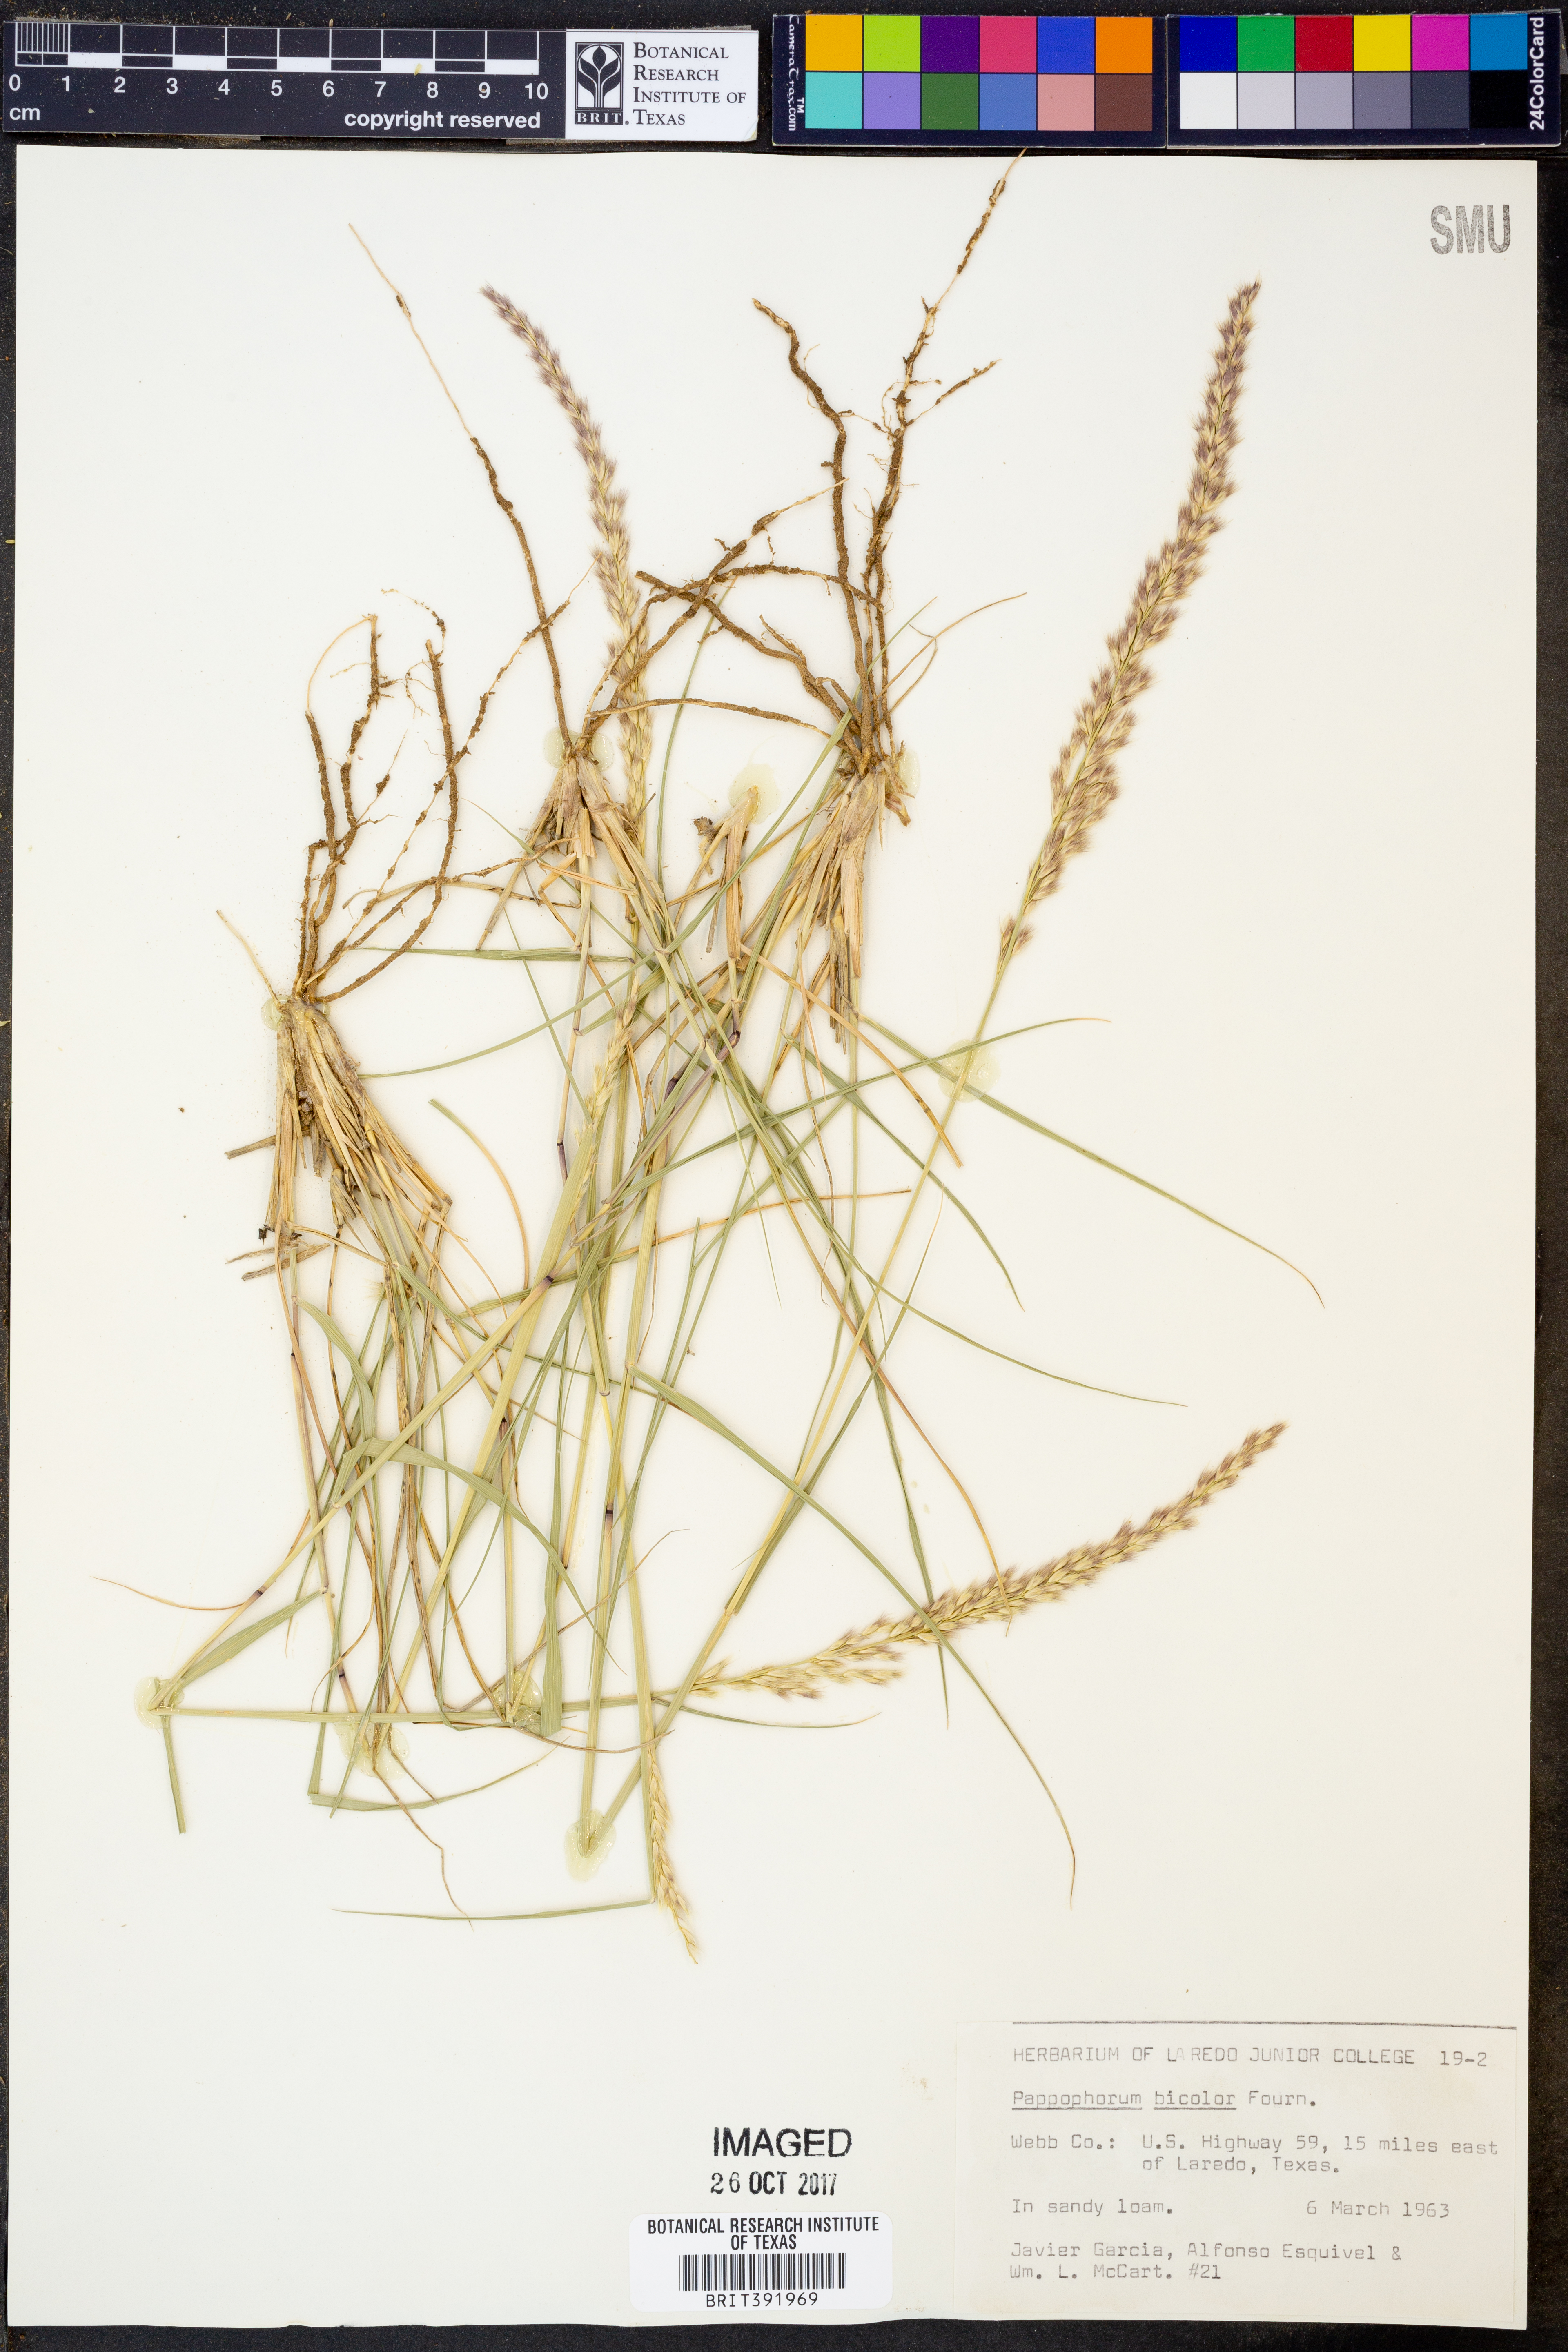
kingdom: Plantae
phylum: Tracheophyta
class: Liliopsida
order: Poales
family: Poaceae
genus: Pappophorum
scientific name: Pappophorum bicolor
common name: Pink pappus grass
